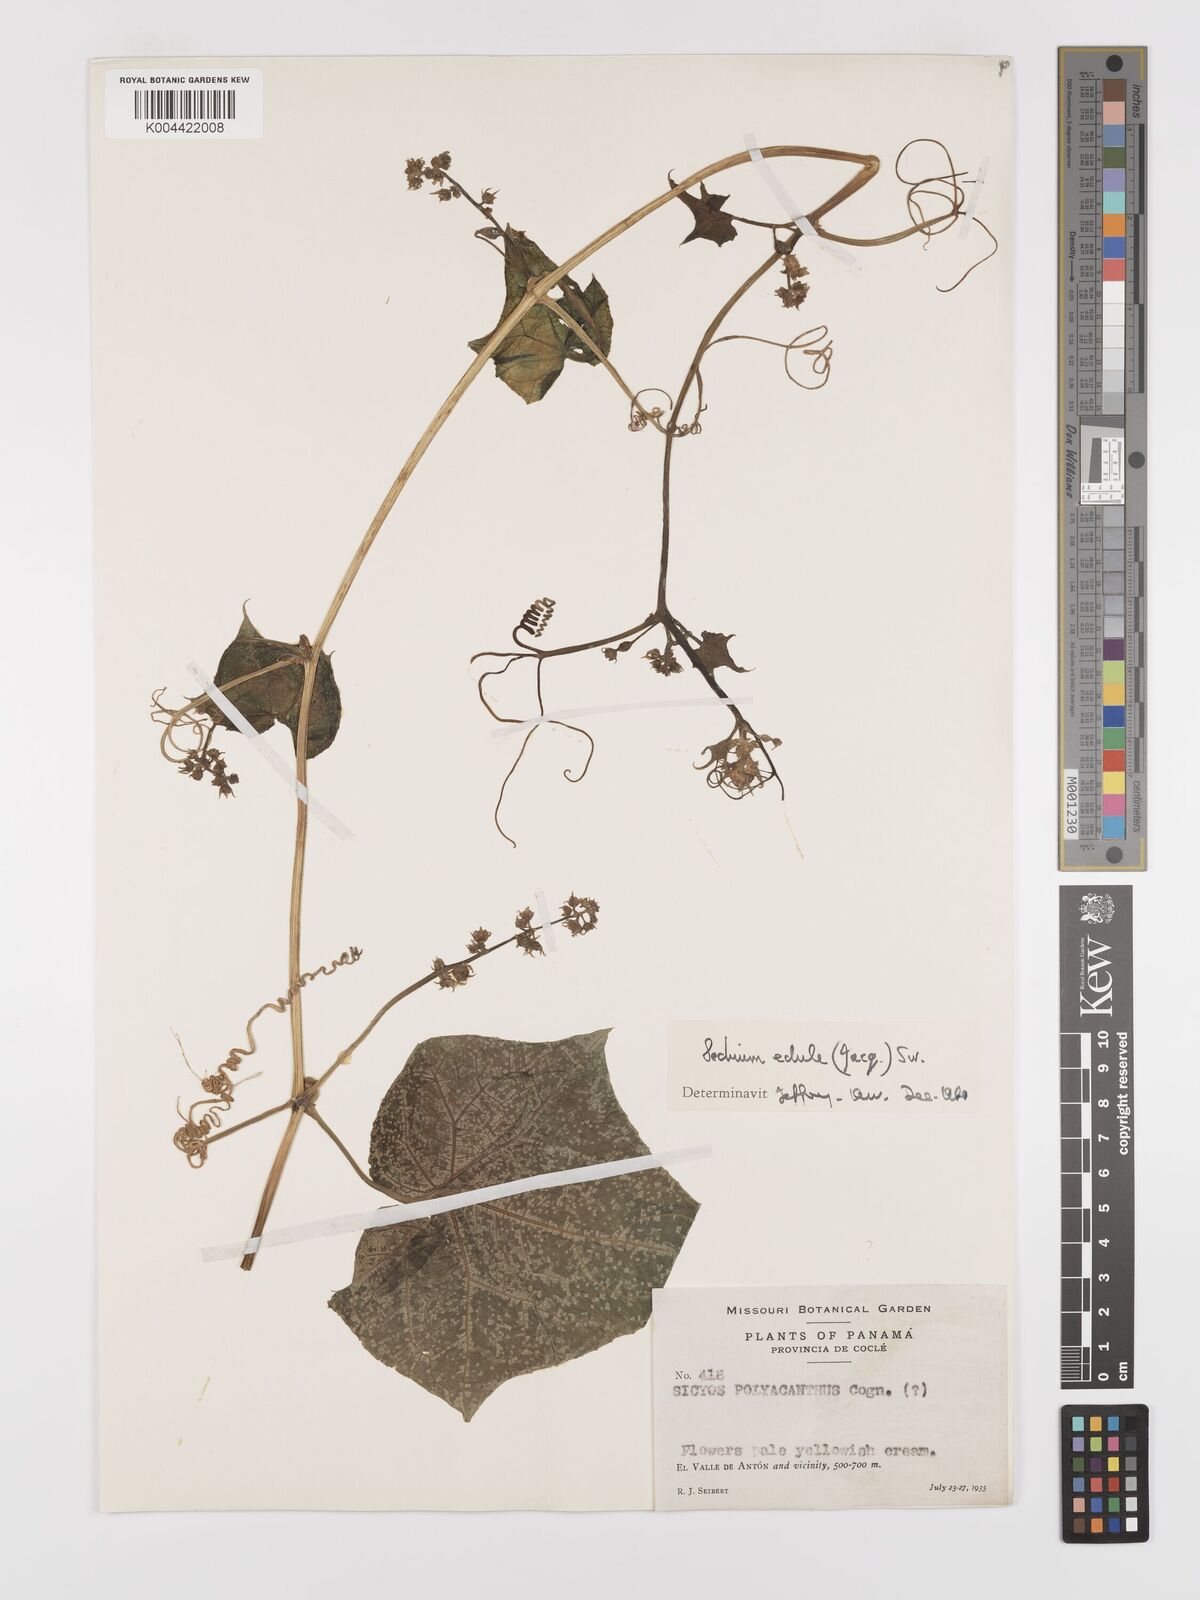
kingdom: Plantae
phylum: Tracheophyta
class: Magnoliopsida
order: Cucurbitales
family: Cucurbitaceae
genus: Sechium
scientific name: Sechium edule
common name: Chayote
